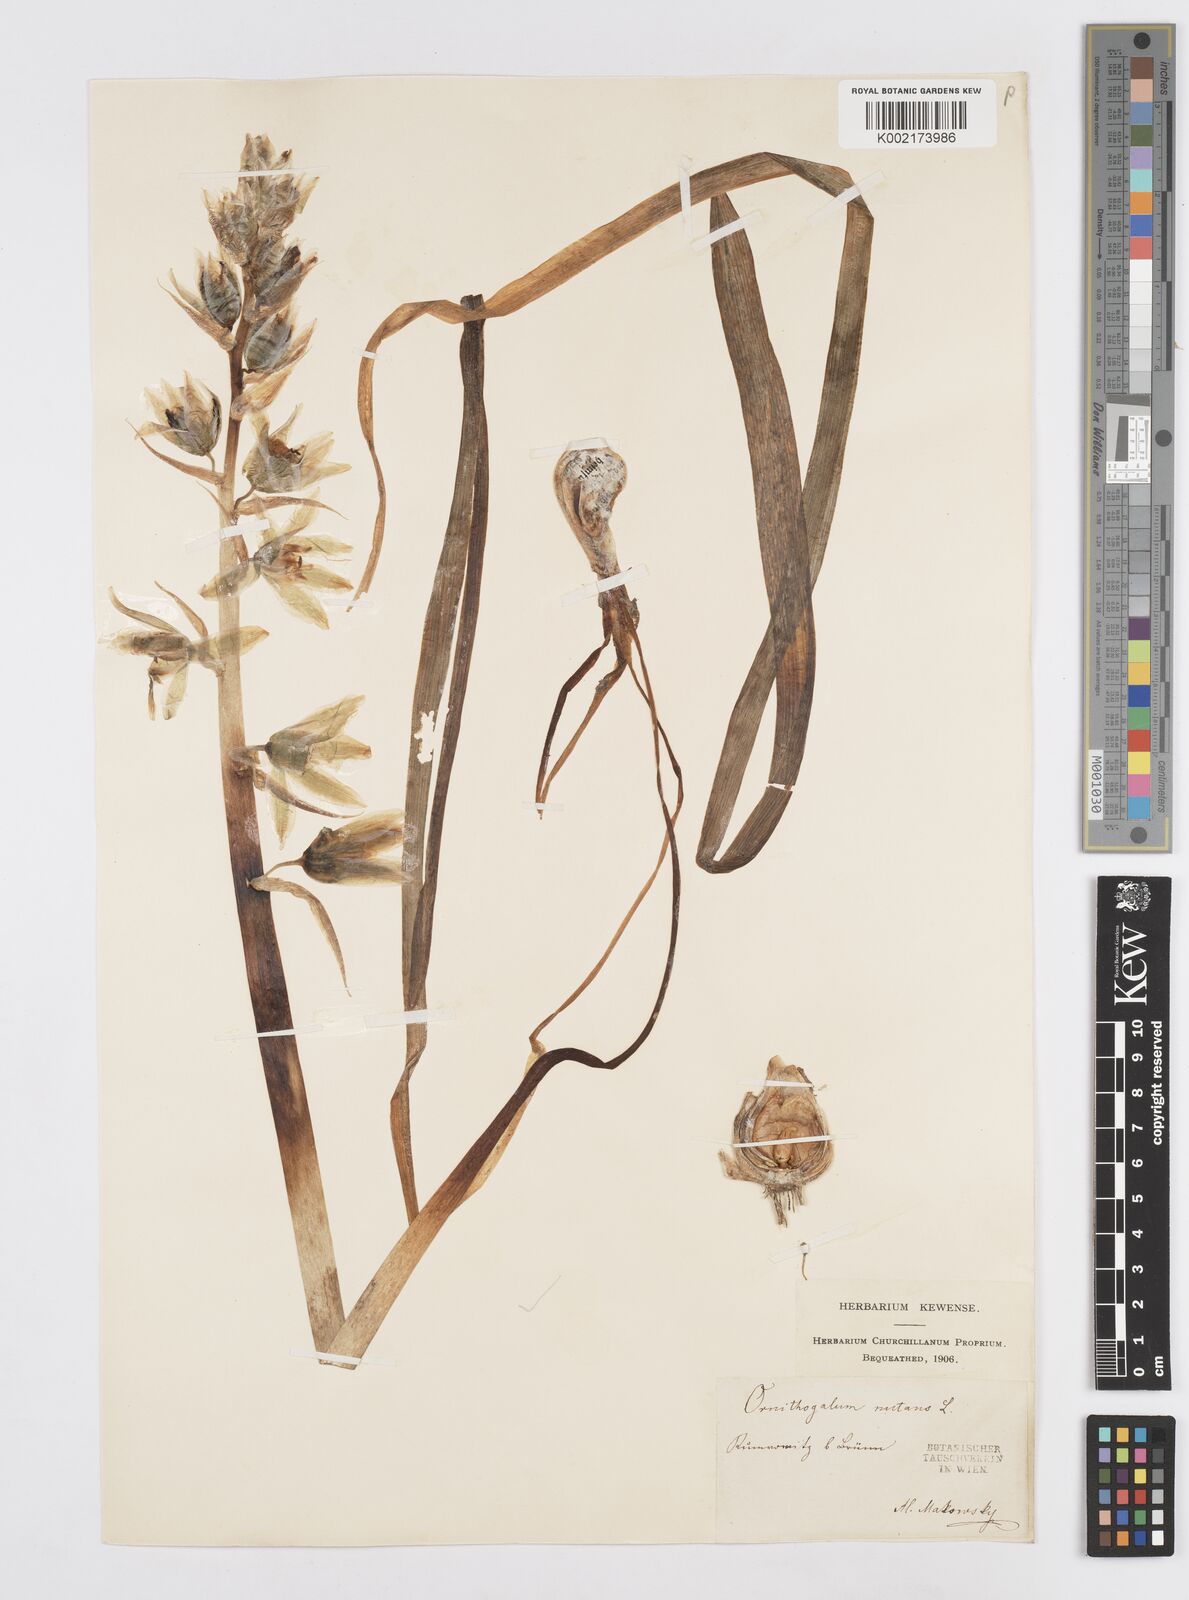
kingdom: Plantae
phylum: Tracheophyta
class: Liliopsida
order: Asparagales
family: Asparagaceae
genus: Ornithogalum
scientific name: Ornithogalum nutans
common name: Drooping star-of-bethlehem
